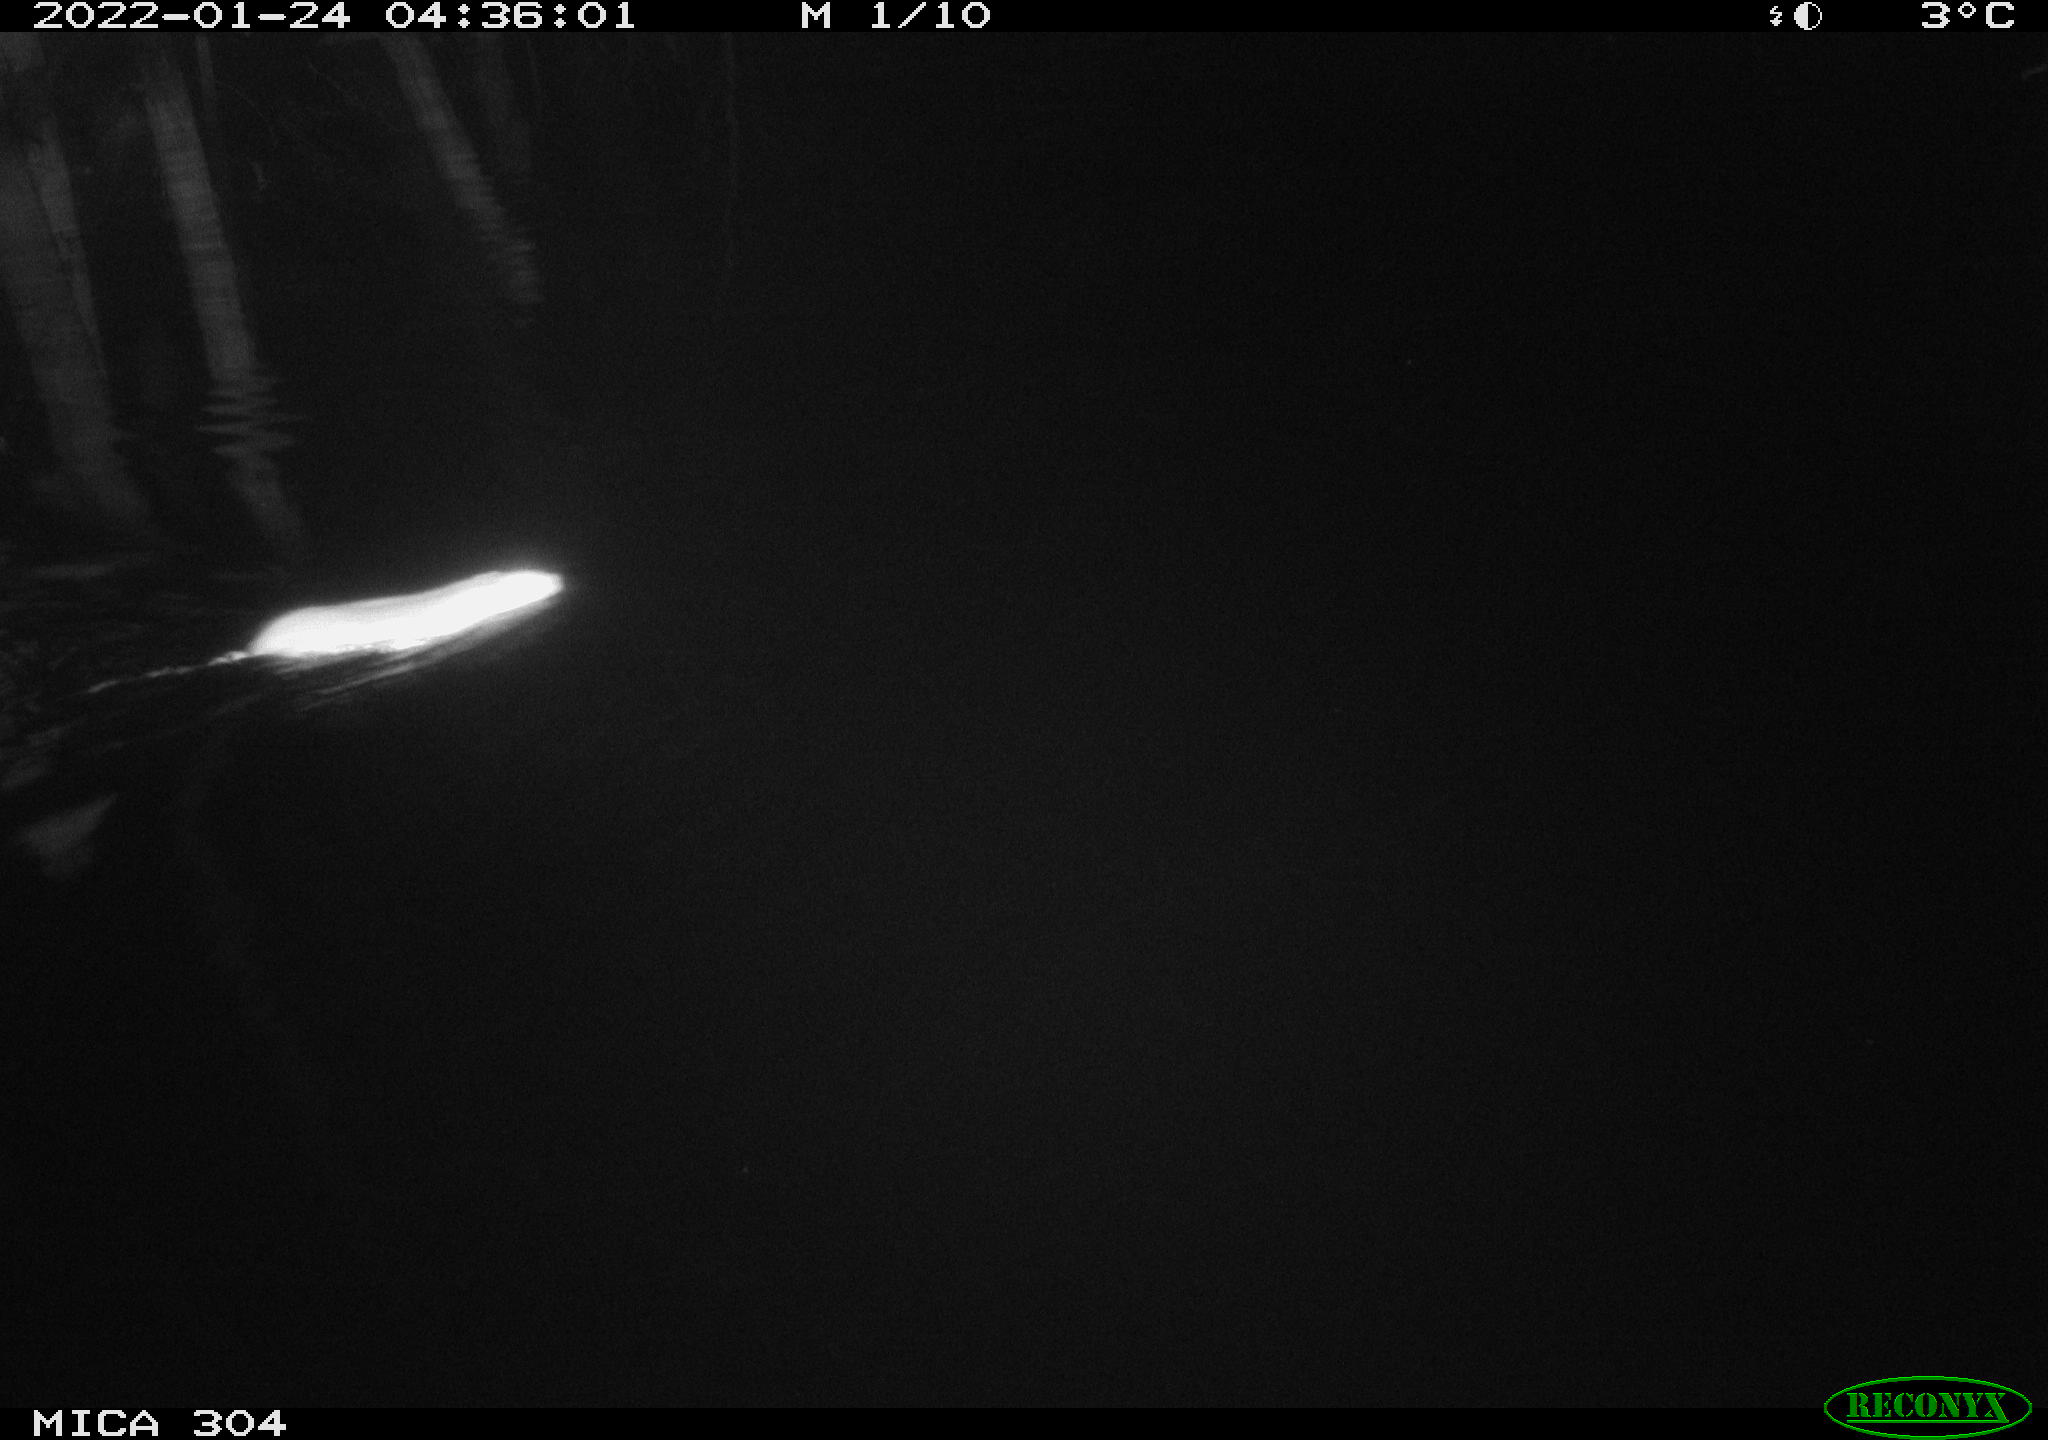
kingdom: Animalia
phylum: Chordata
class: Mammalia
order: Rodentia
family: Muridae
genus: Rattus
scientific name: Rattus norvegicus
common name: Brown rat
